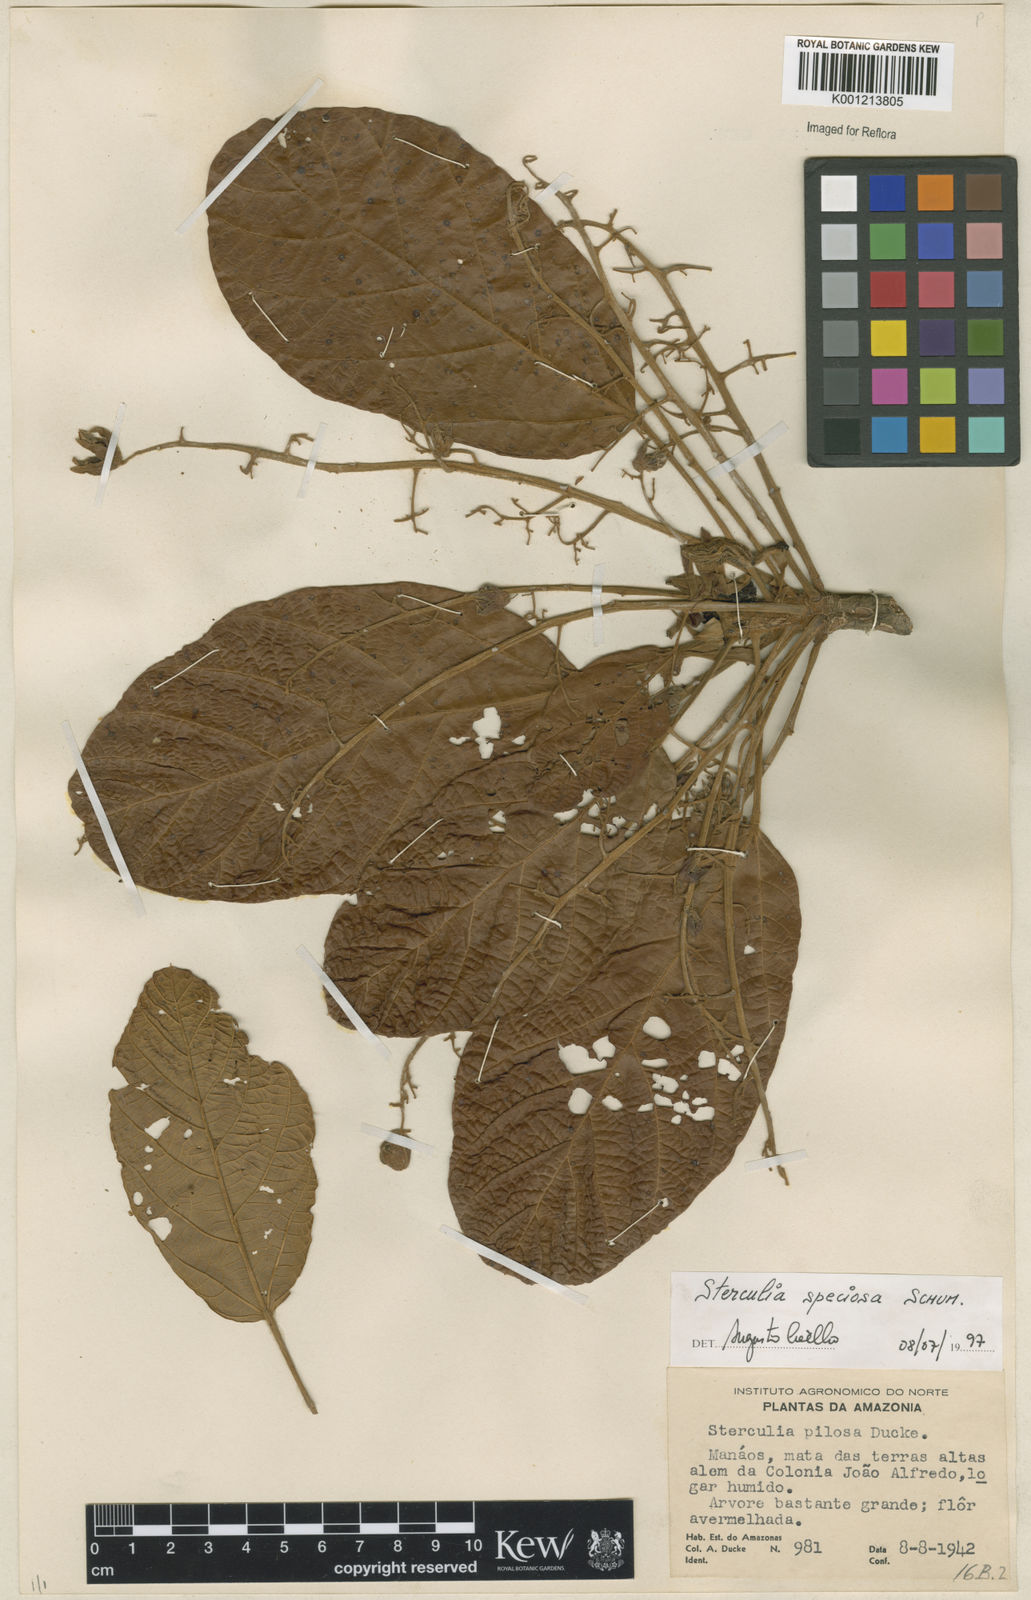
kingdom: Plantae
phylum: Tracheophyta
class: Magnoliopsida
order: Malvales
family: Malvaceae
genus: Sterculia
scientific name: Sterculia speciosa
